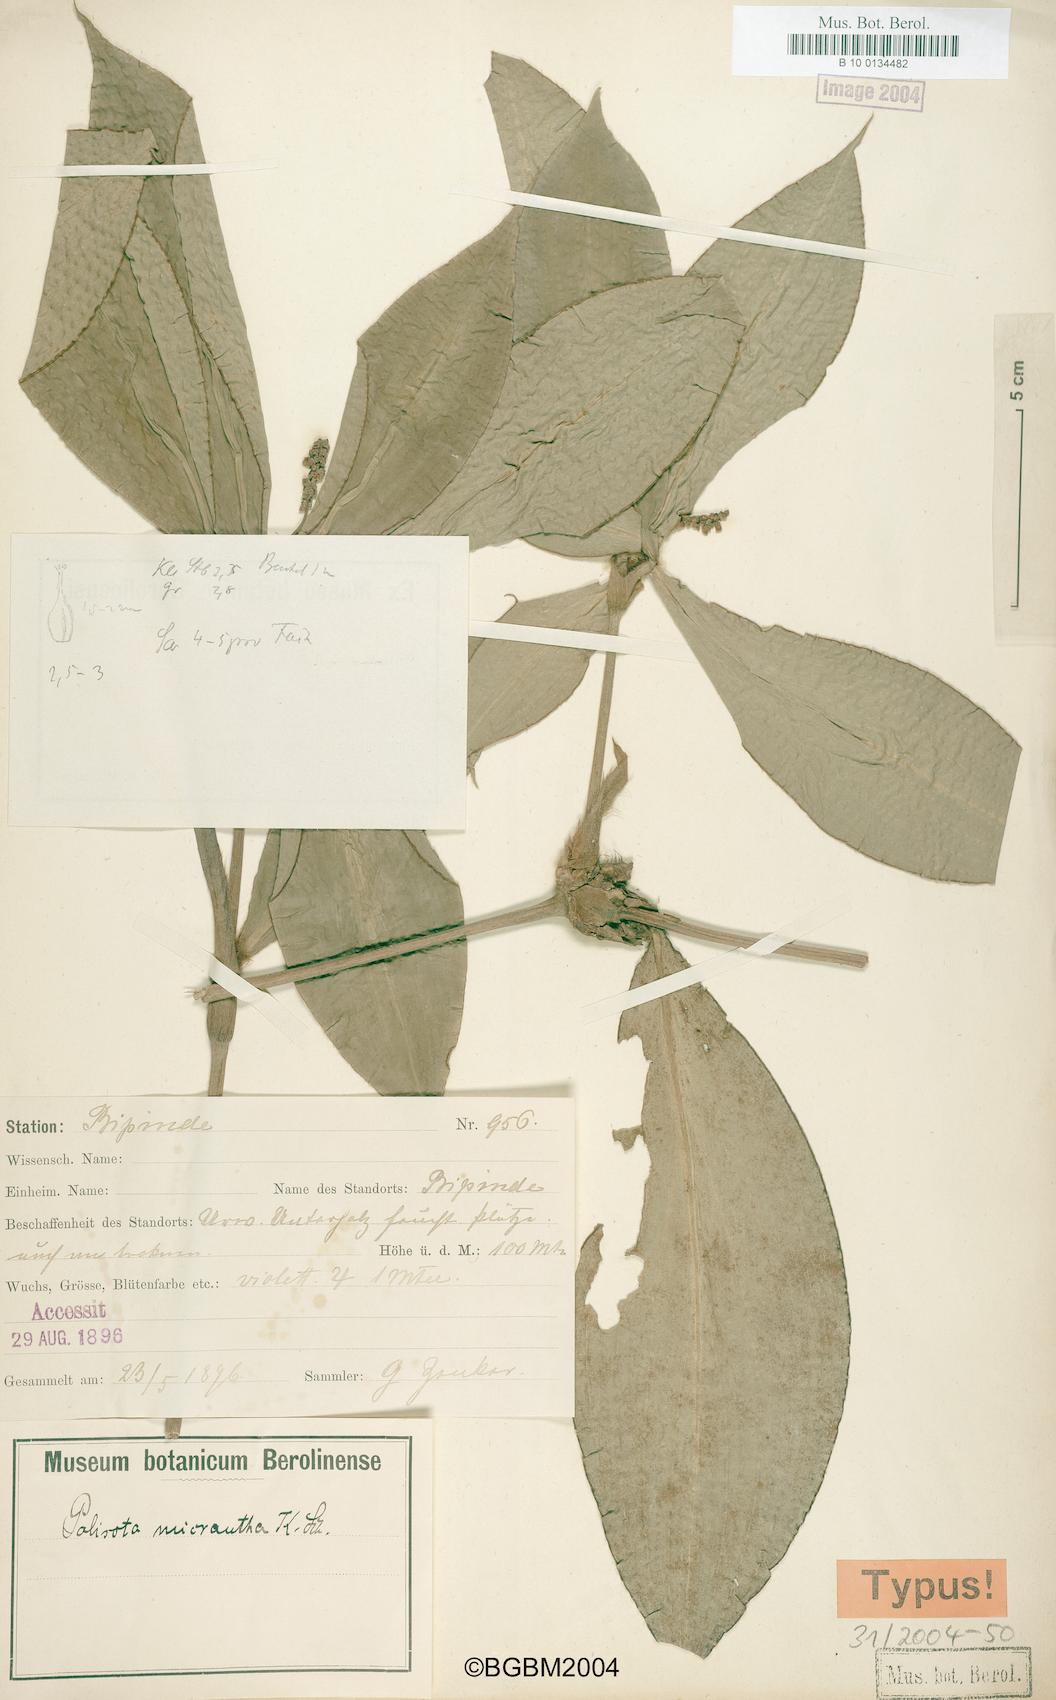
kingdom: Plantae
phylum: Tracheophyta
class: Liliopsida
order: Commelinales
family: Commelinaceae
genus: Palisota
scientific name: Palisota ambigua
